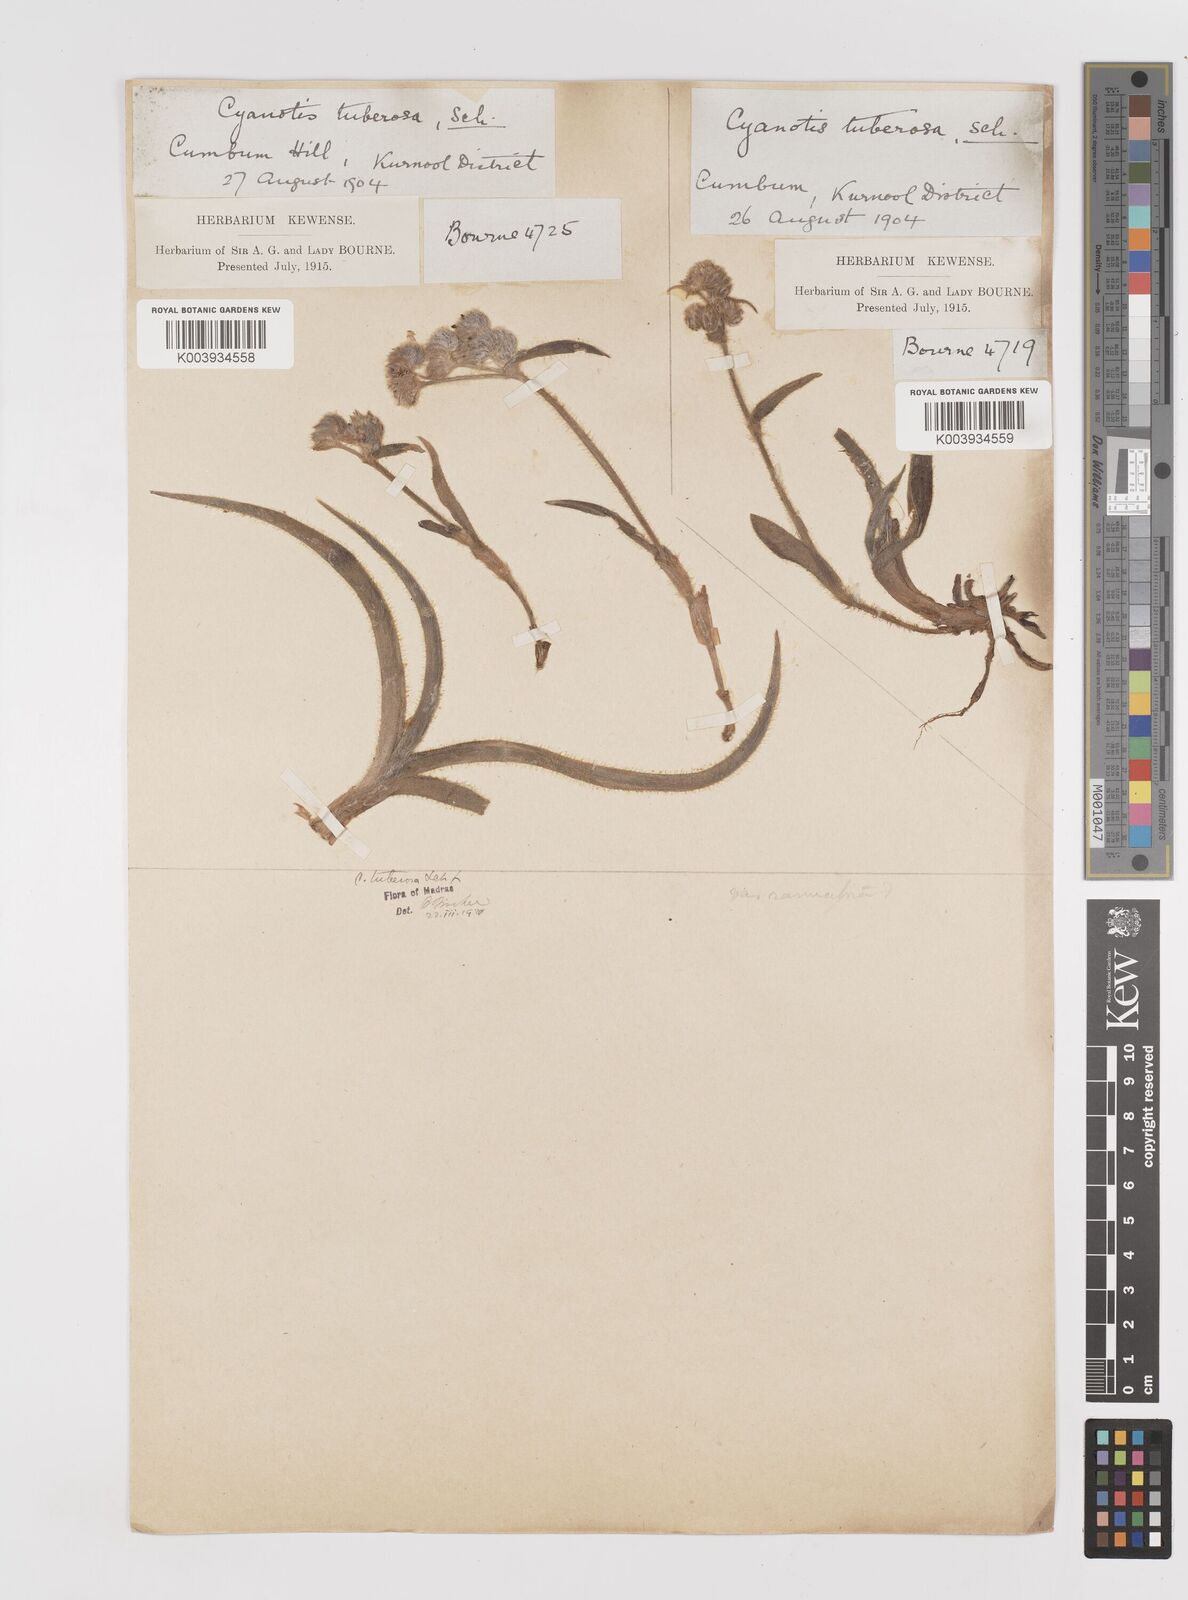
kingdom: Plantae
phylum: Tracheophyta
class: Liliopsida
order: Commelinales
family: Commelinaceae
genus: Cyanotis
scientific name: Cyanotis tuberosa
